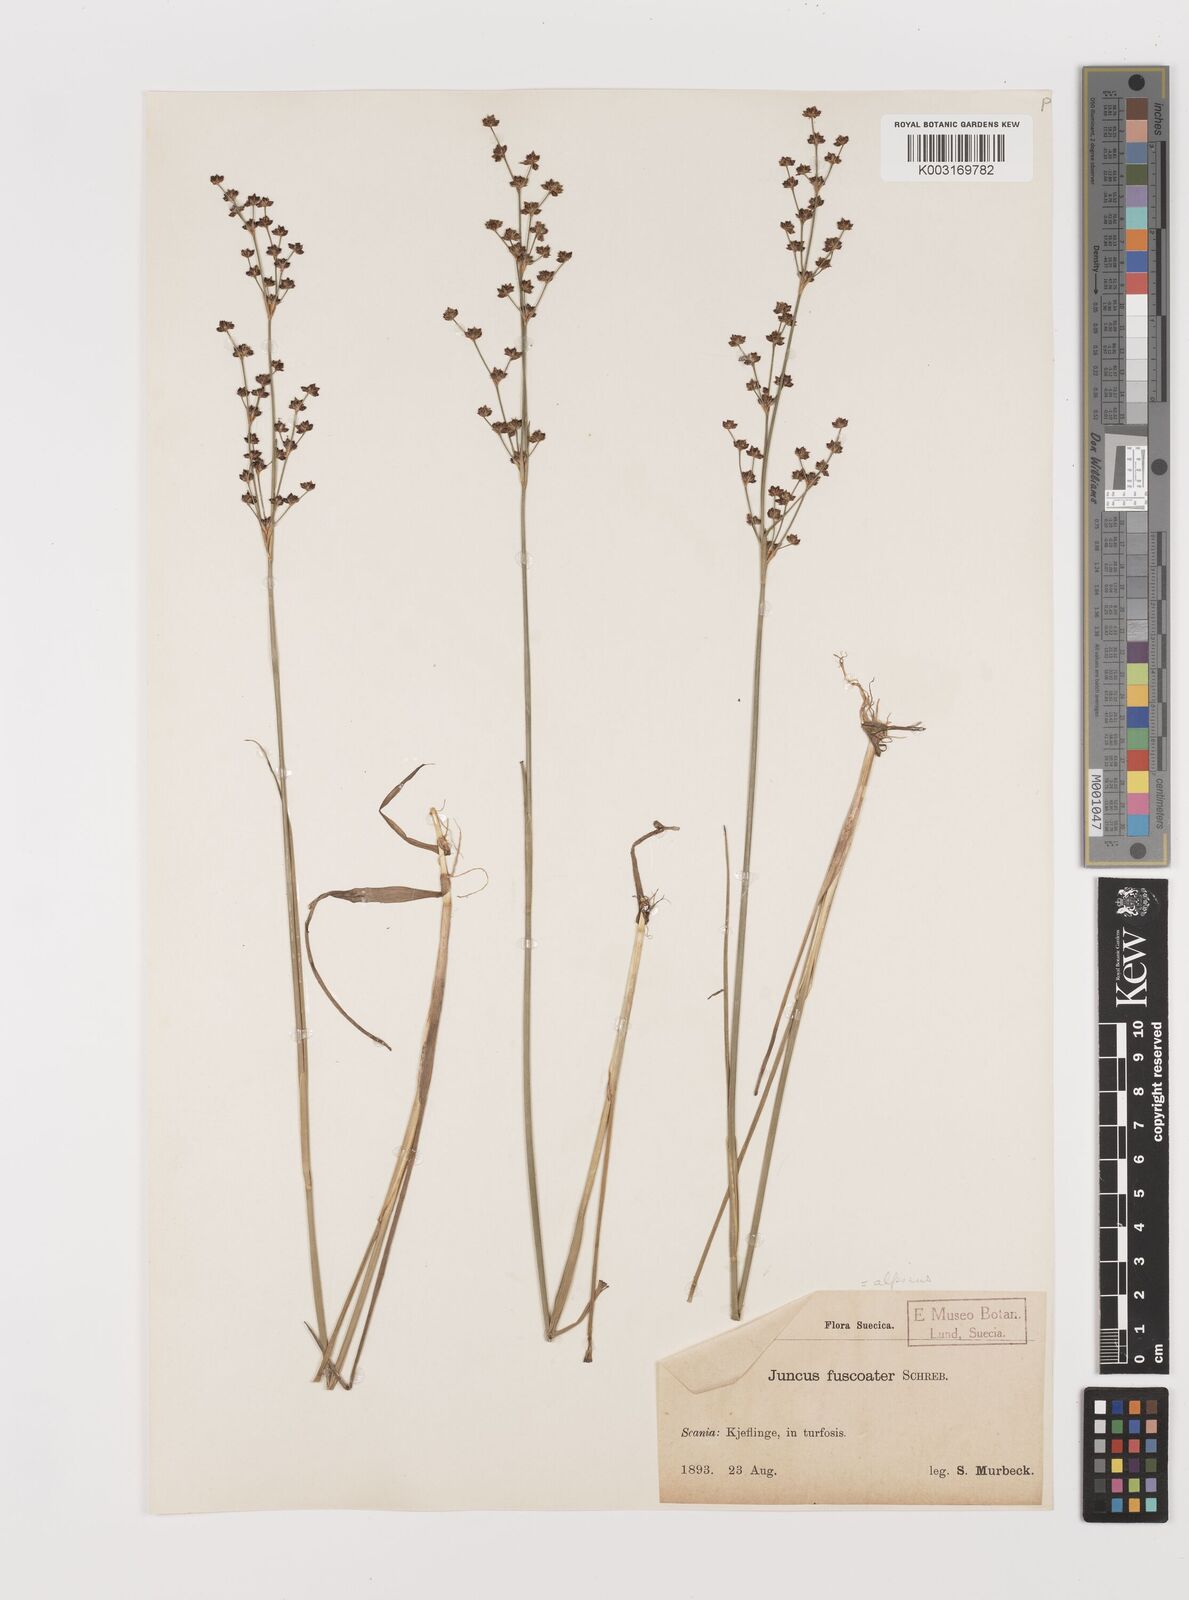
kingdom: Plantae
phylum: Tracheophyta
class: Liliopsida
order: Poales
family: Juncaceae
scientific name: Juncaceae
